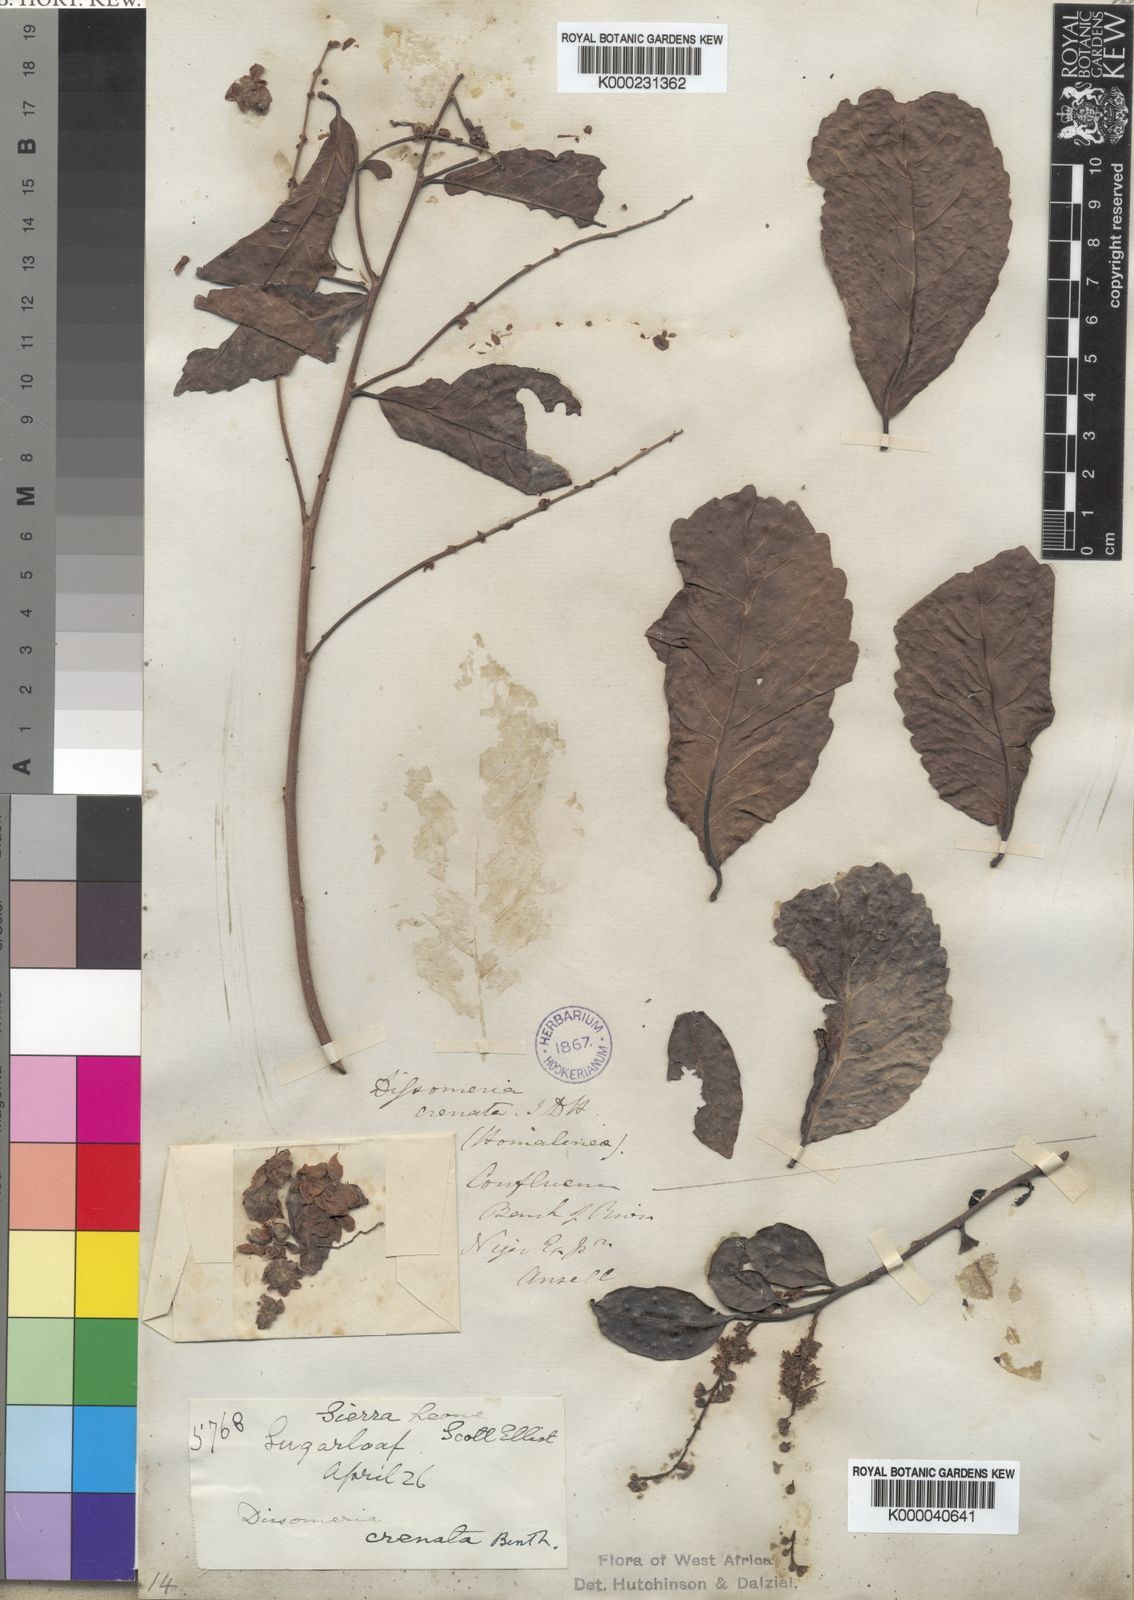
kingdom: Plantae
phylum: Tracheophyta
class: Magnoliopsida
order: Malpighiales
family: Salicaceae
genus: Dissomeria
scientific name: Dissomeria crenata
